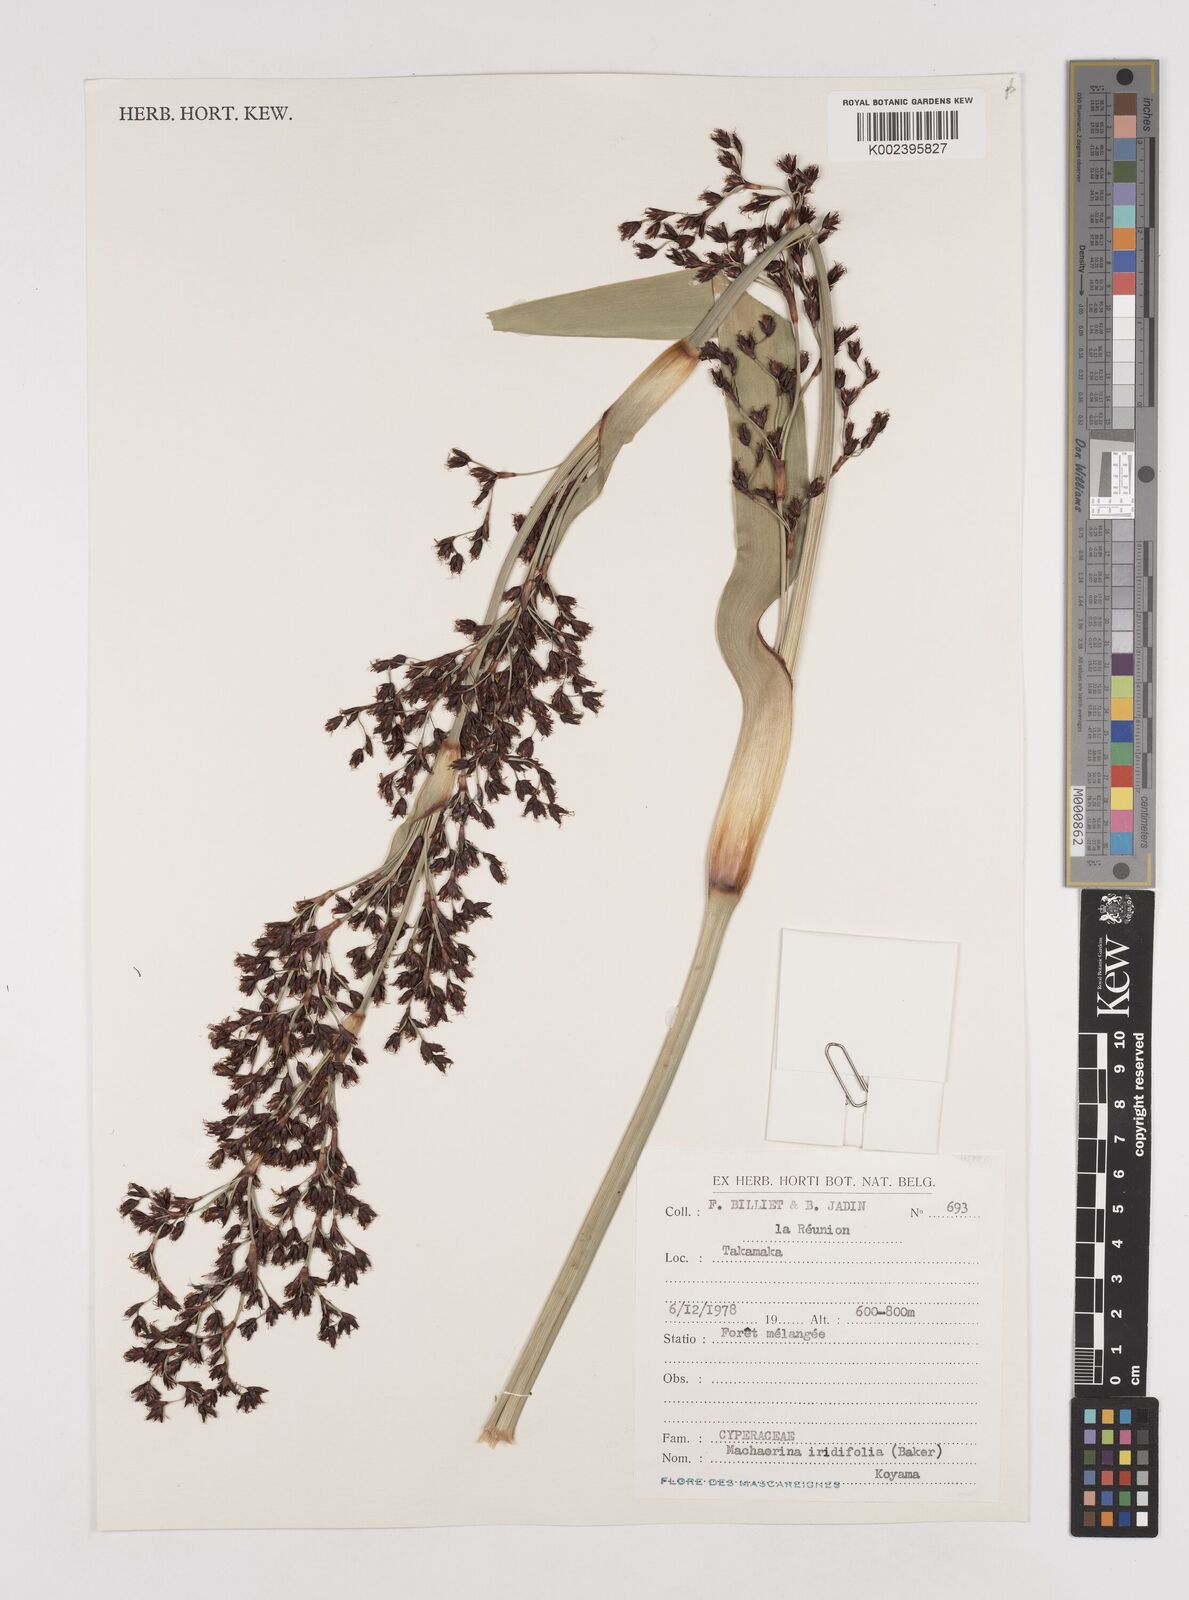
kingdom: Plantae
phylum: Tracheophyta
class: Liliopsida
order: Poales
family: Cyperaceae
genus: Machaerina
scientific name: Machaerina iridifolia
